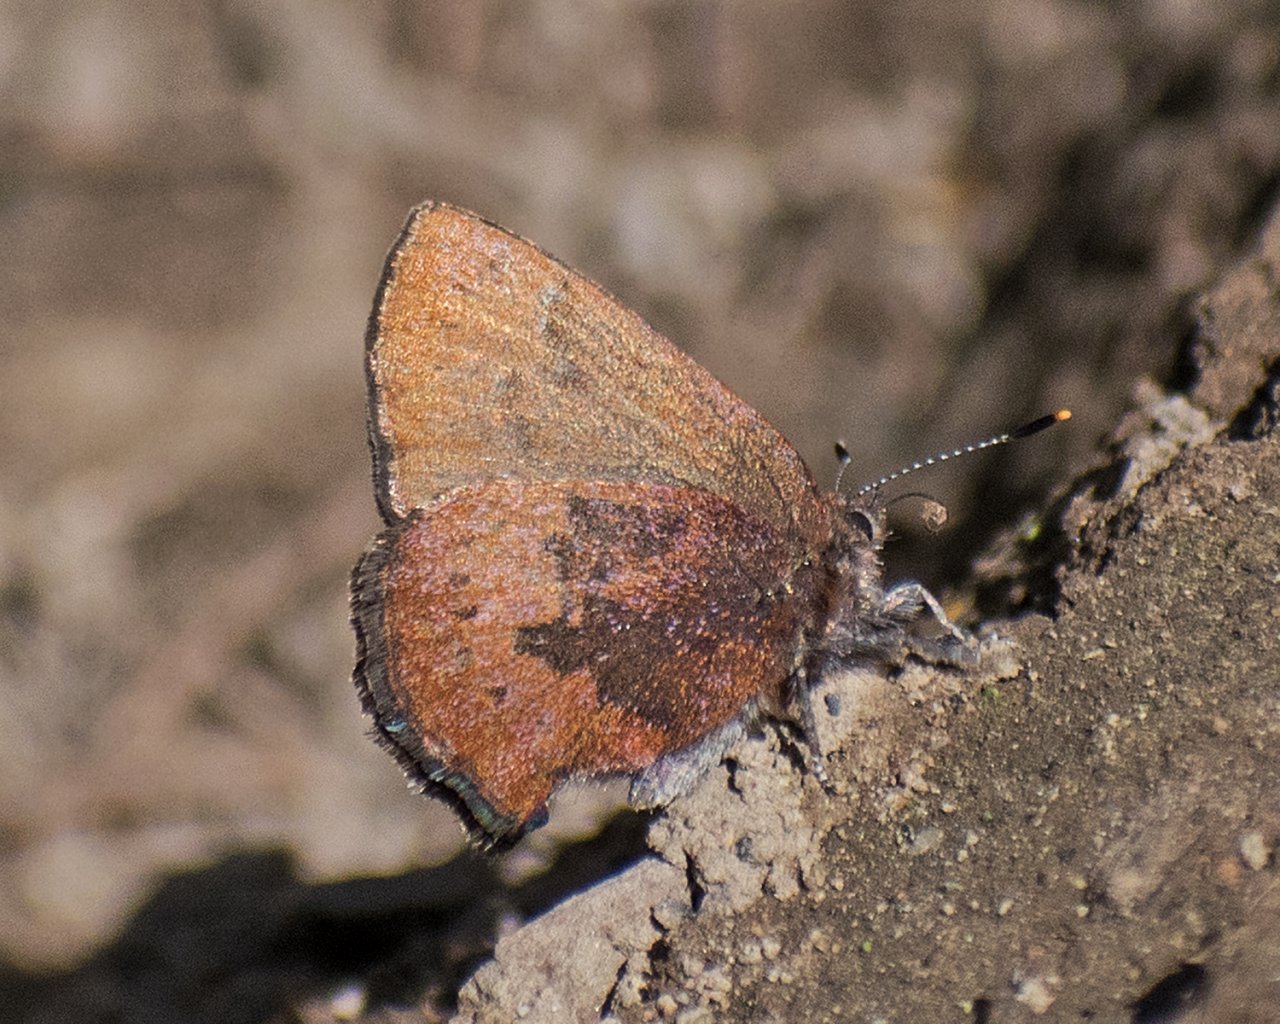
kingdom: Animalia
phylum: Arthropoda
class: Insecta
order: Lepidoptera
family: Lycaenidae
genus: Incisalia
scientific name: Incisalia irioides
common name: Brown Elfin
